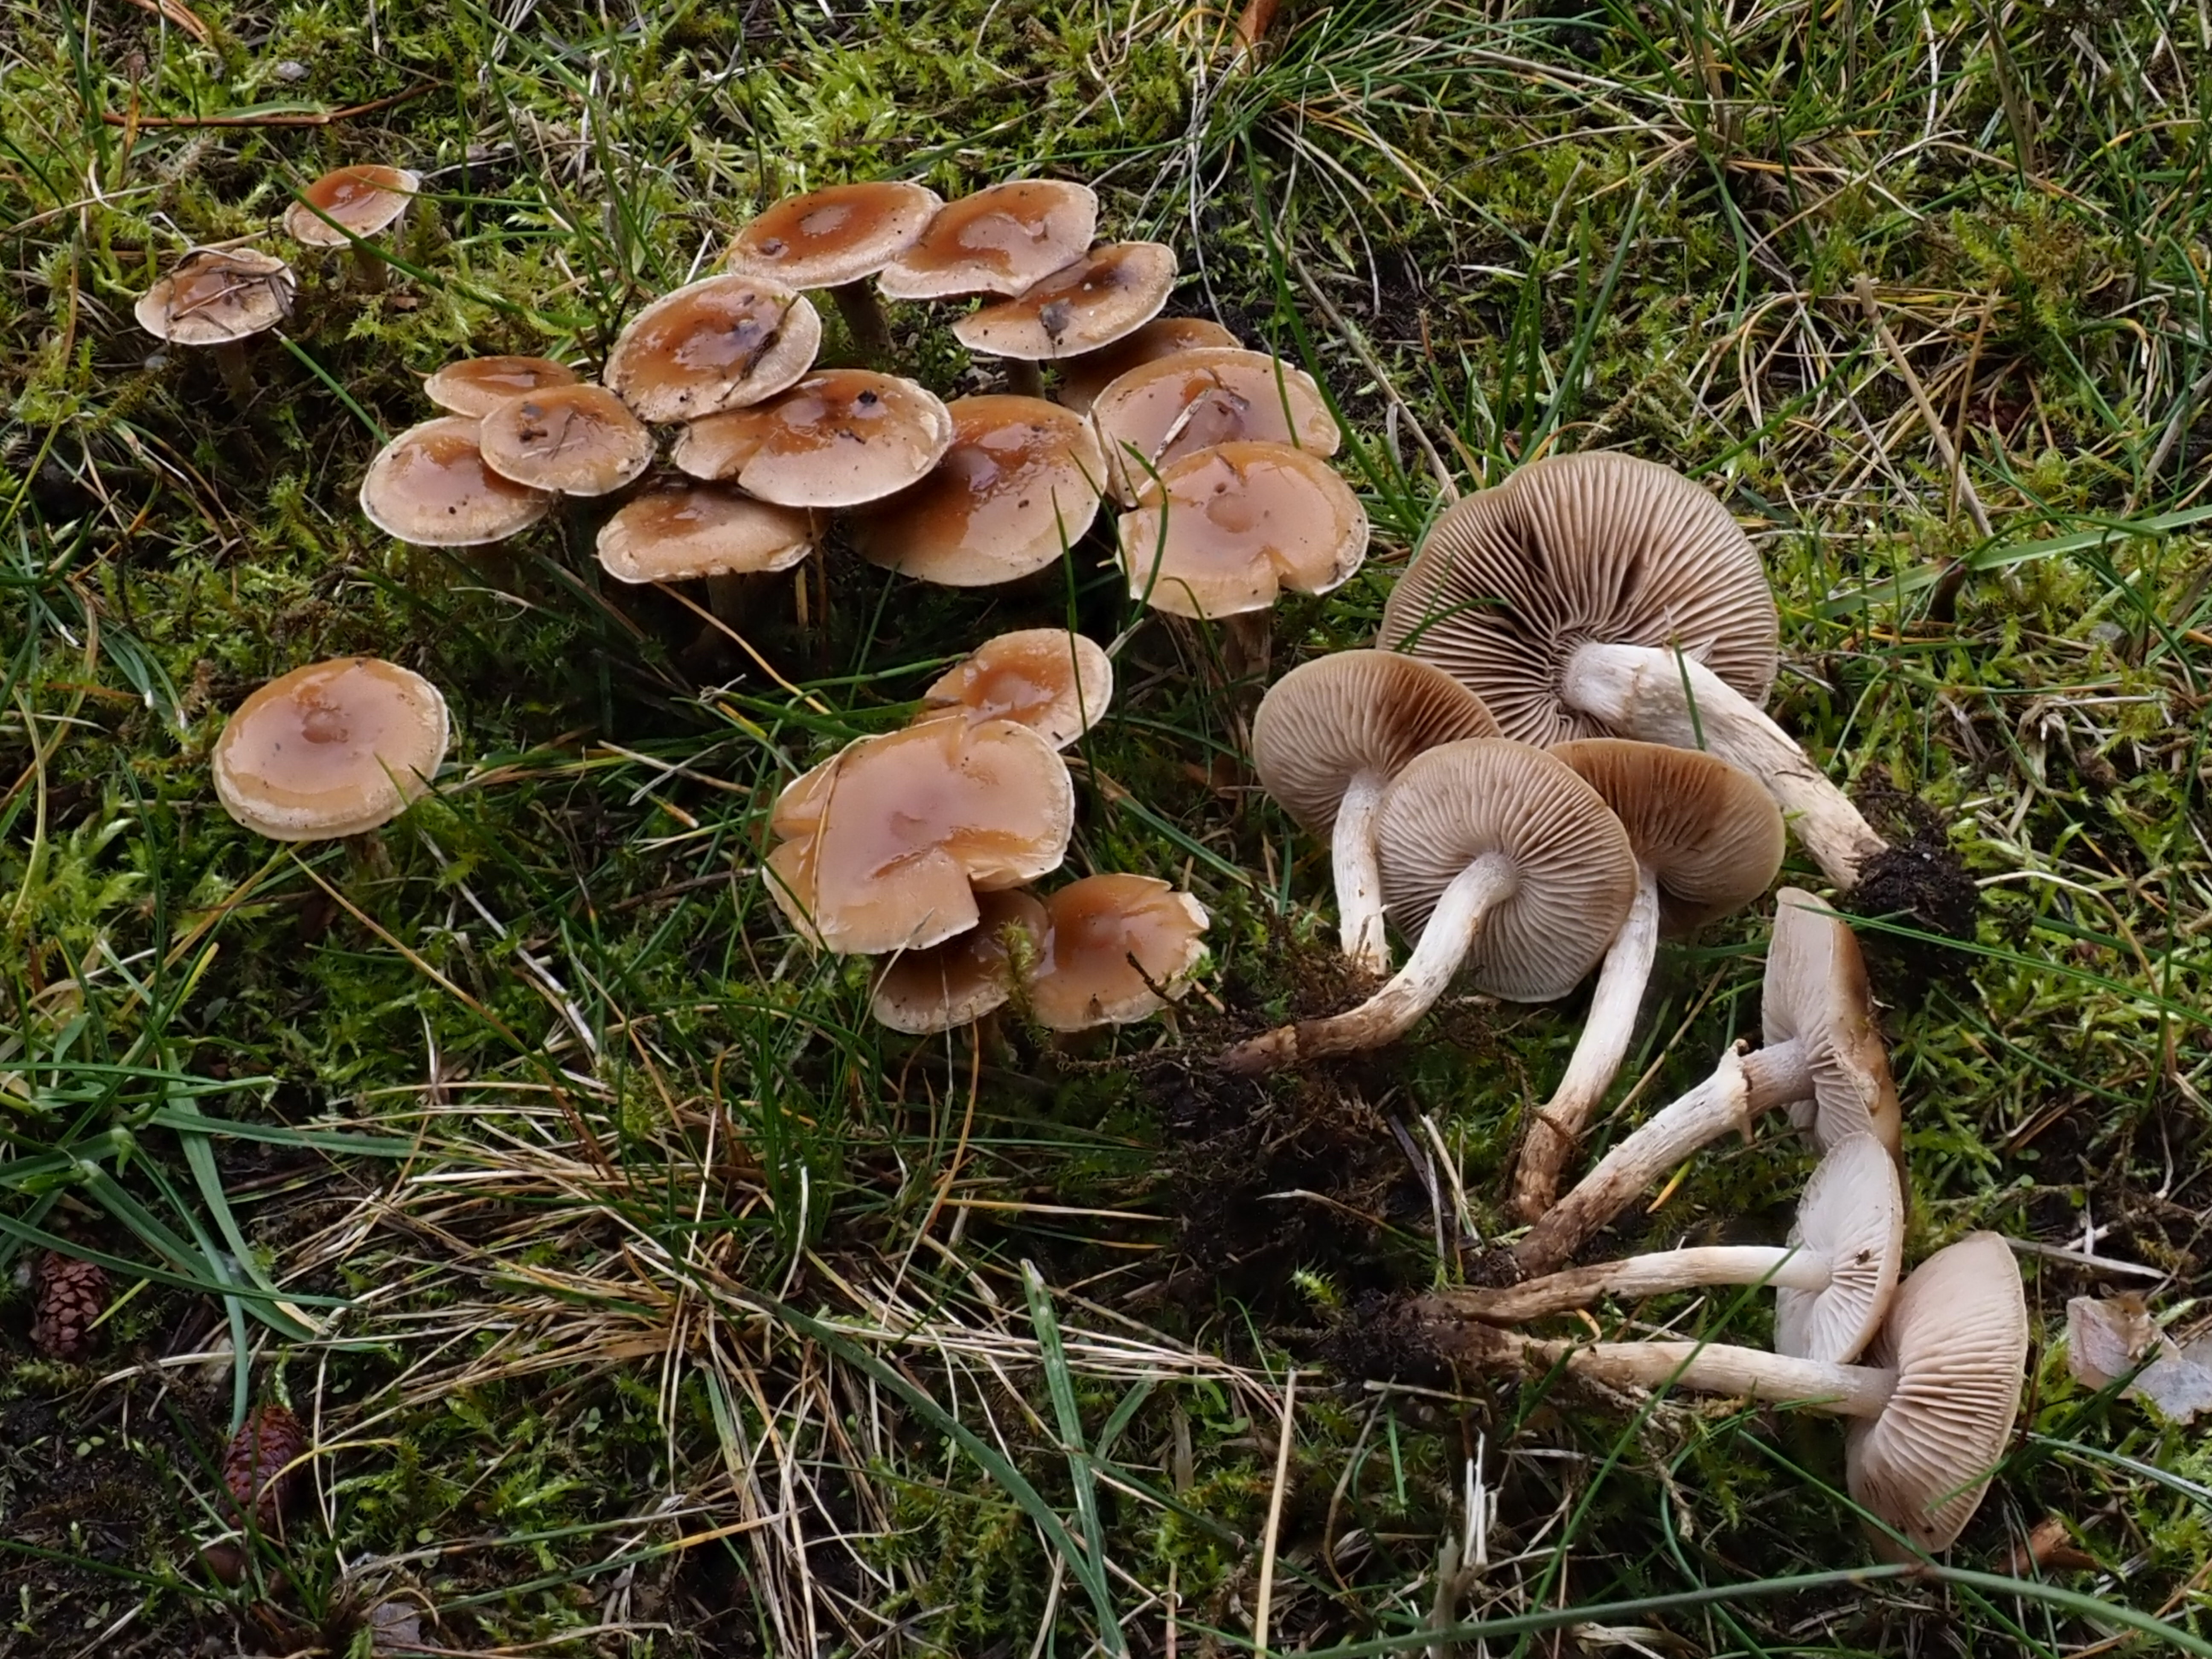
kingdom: Fungi
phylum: Basidiomycota
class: Agaricomycetes
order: Agaricales
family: Hymenogastraceae
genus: Hebeloma
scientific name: Hebeloma mesophaeum
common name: Veiled poisonpie
